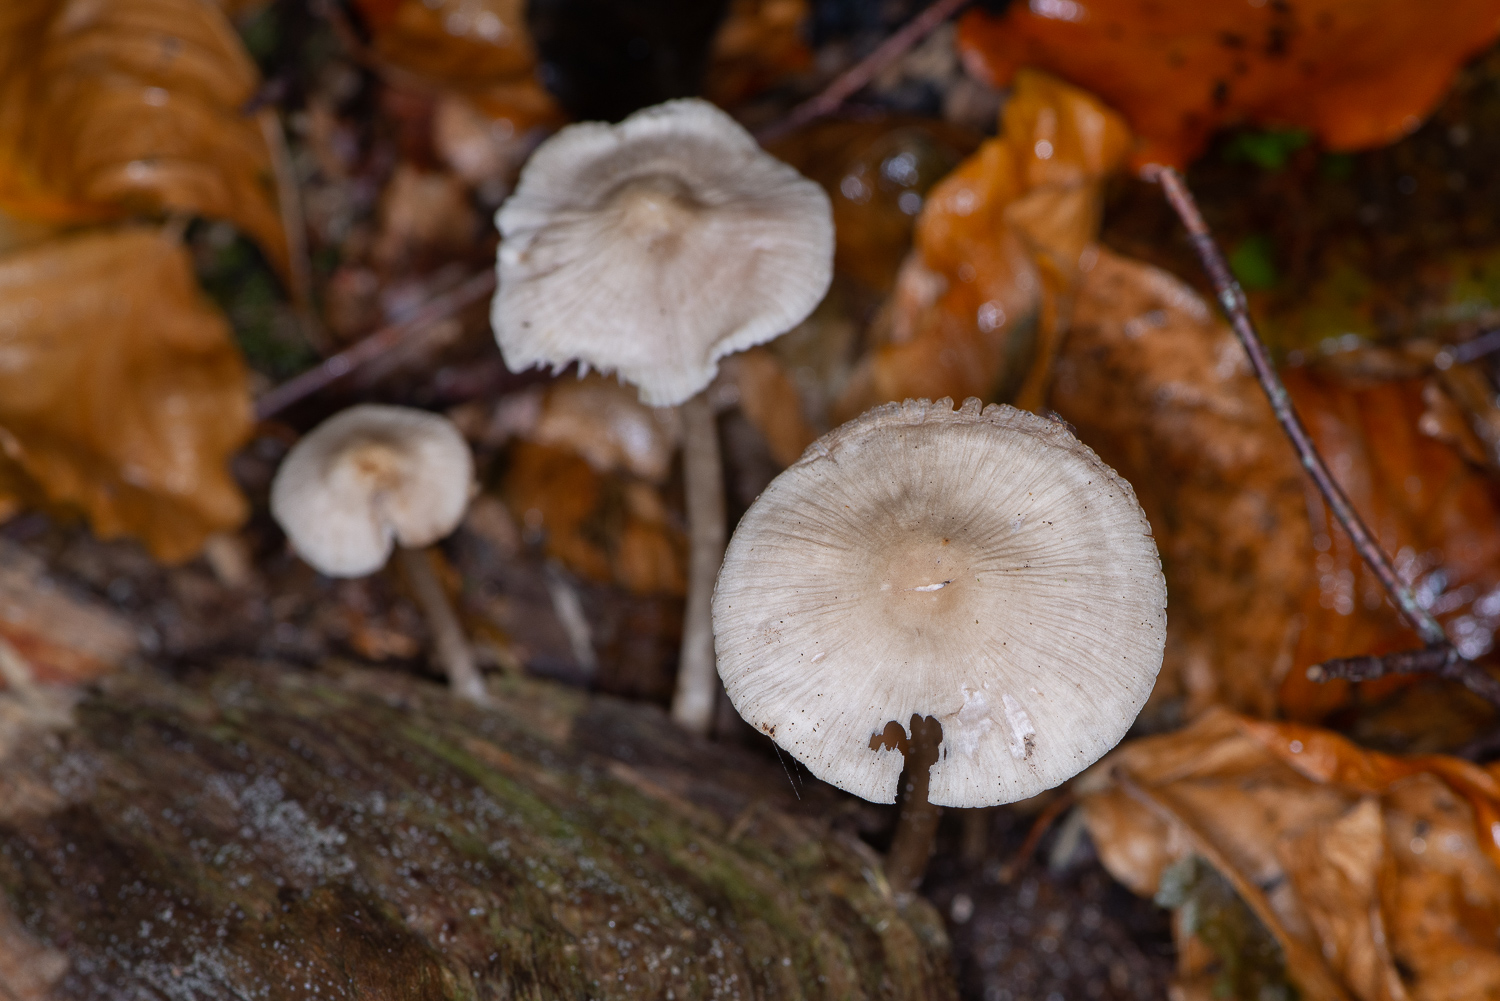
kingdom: Fungi
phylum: Basidiomycota
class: Agaricomycetes
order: Agaricales
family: Mycenaceae
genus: Mycena
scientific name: Mycena galericulata
